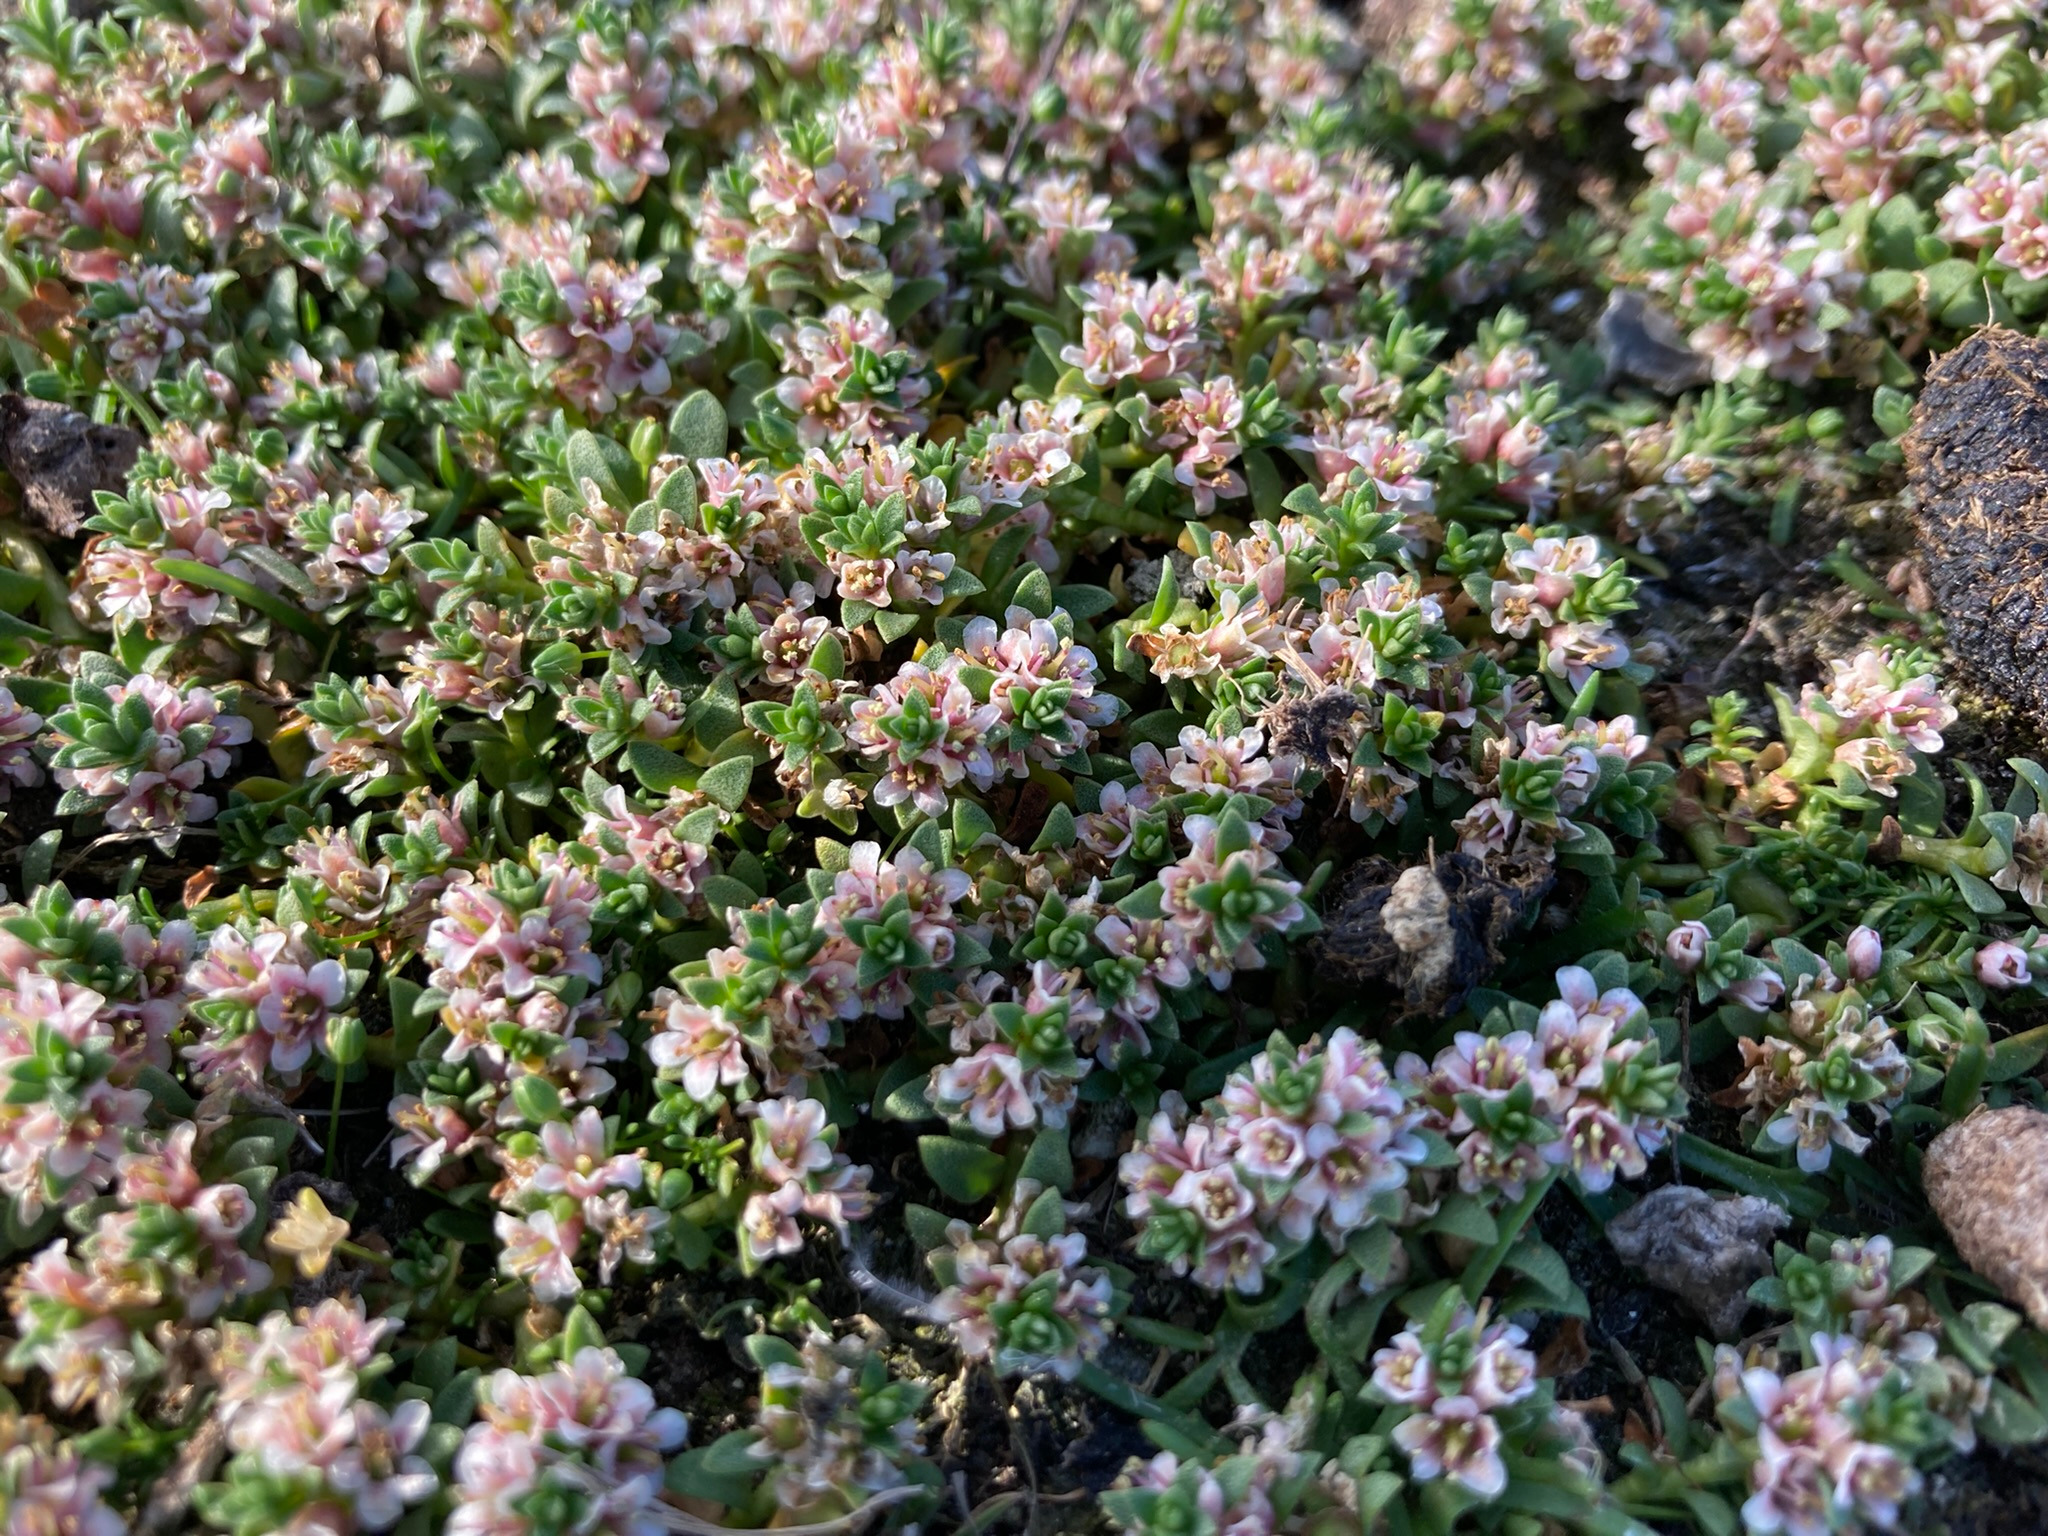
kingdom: Plantae
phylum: Tracheophyta
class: Magnoliopsida
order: Ericales
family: Primulaceae
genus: Lysimachia
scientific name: Lysimachia maritima
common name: Sandkryb
